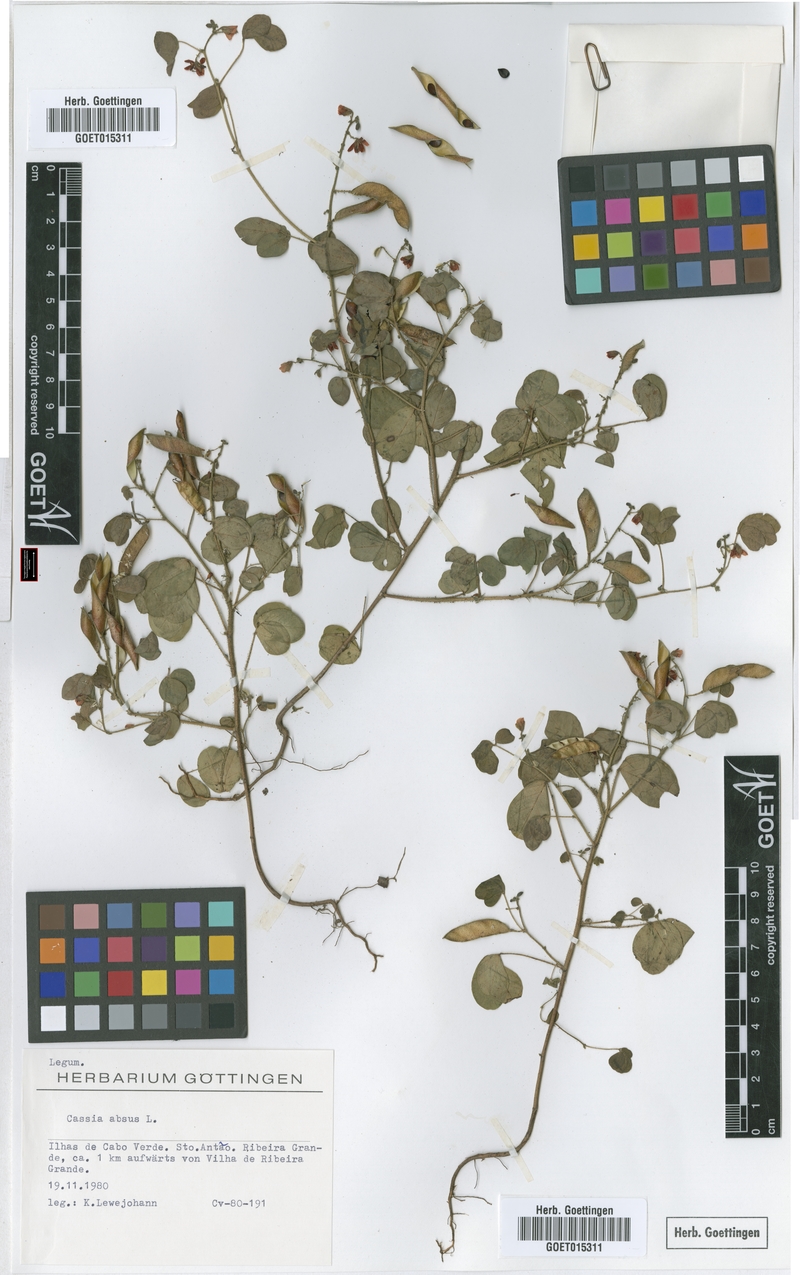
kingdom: Plantae
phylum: Tracheophyta
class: Magnoliopsida
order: Fabales
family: Fabaceae
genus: Chamaecrista
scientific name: Chamaecrista absus
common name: Tropical sensitive pea
